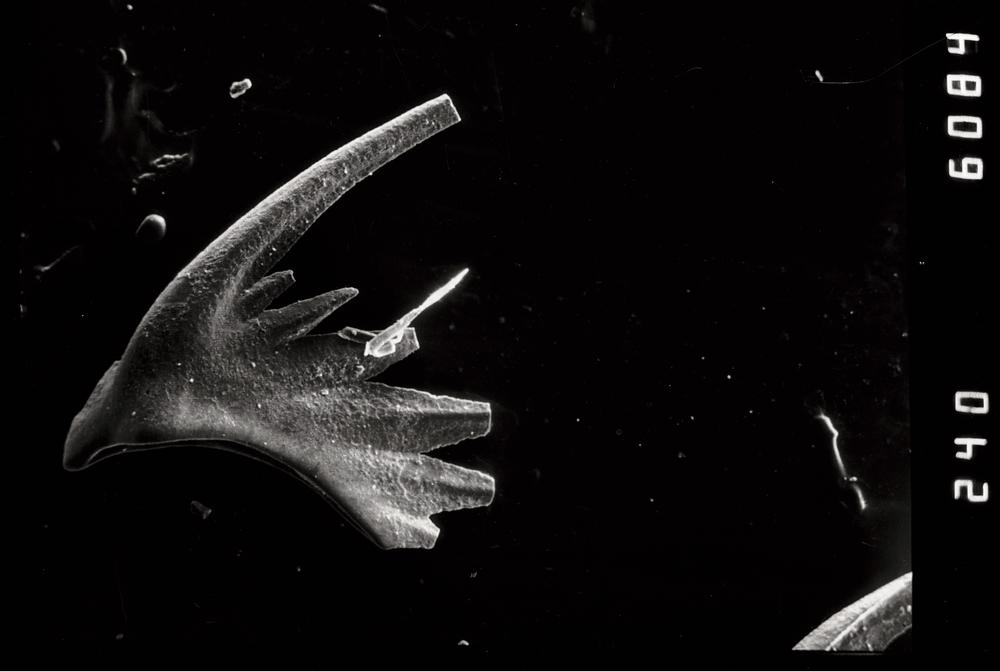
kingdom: Animalia
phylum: Chordata
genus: Periodon
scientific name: Periodon aculeatus
